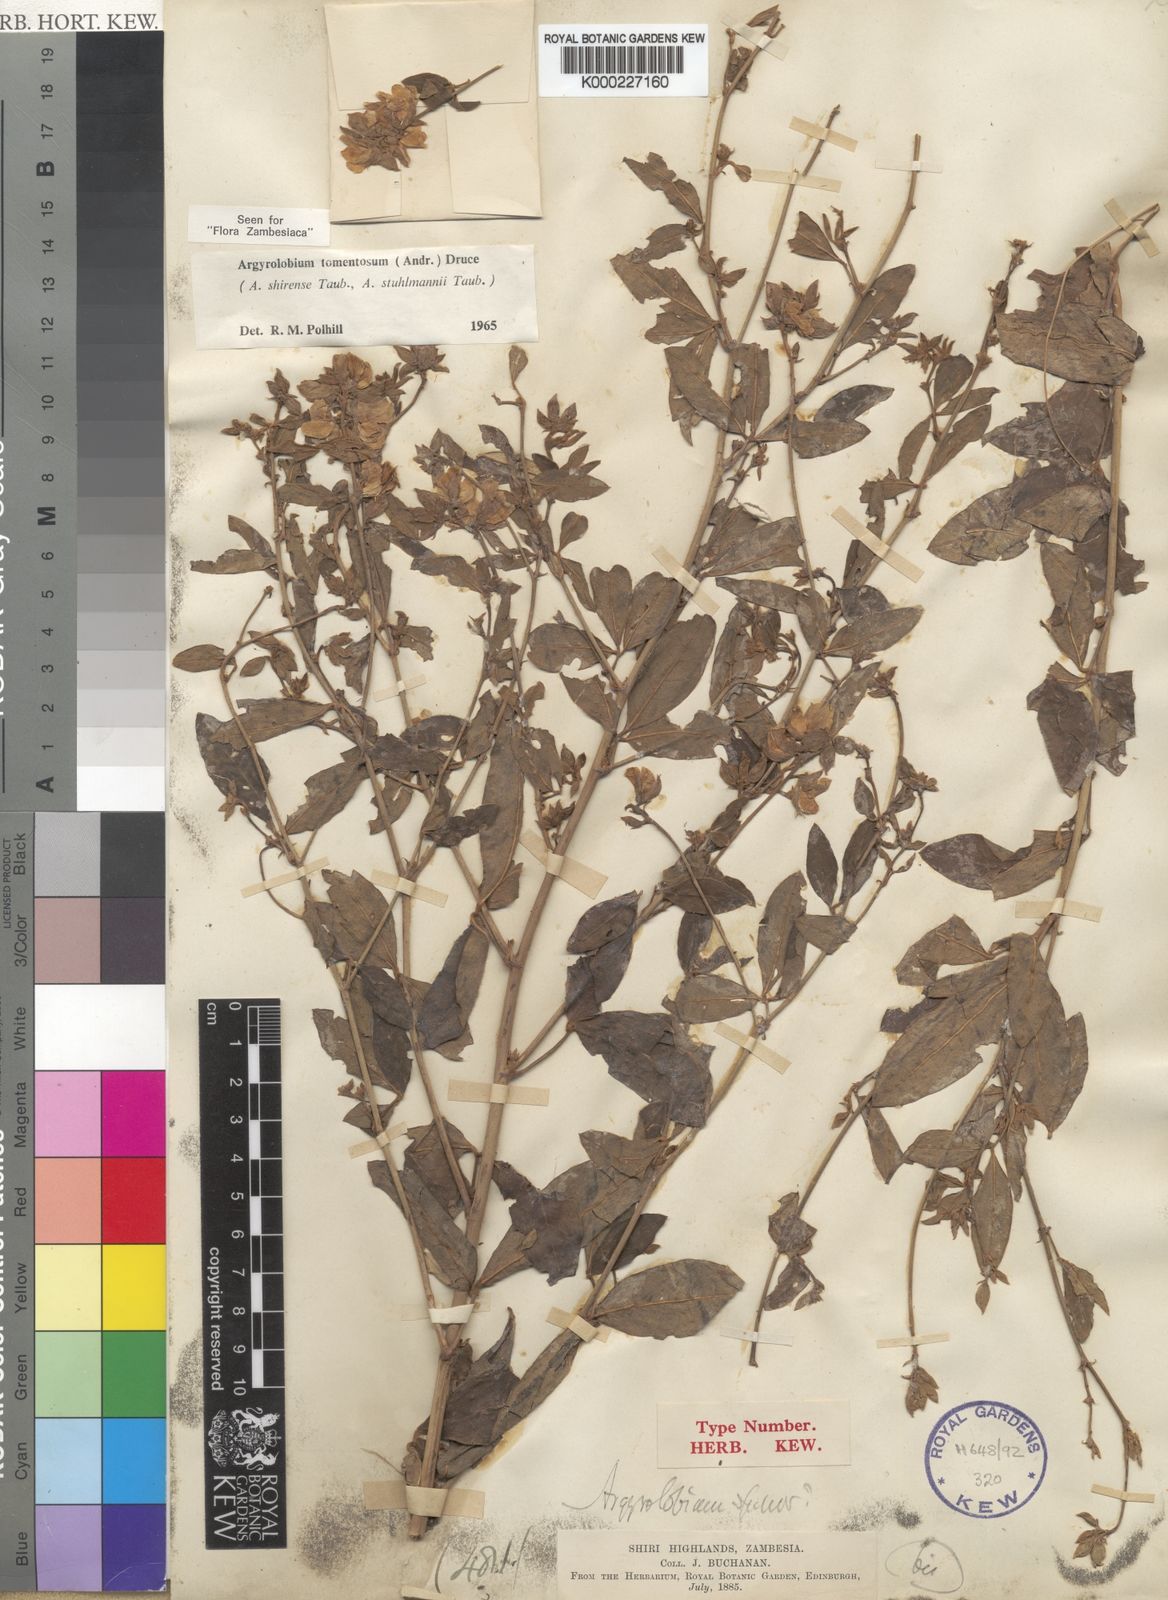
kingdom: Plantae
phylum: Tracheophyta
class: Magnoliopsida
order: Fabales
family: Fabaceae
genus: Argyrolobium
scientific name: Argyrolobium tomentosum
